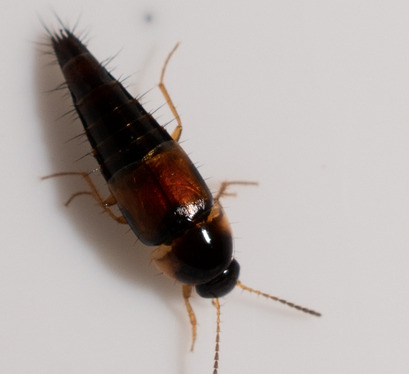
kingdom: Animalia
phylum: Arthropoda
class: Insecta
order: Coleoptera
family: Staphylinidae
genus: Tachyporus
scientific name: Tachyporus hypnorum
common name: Sortplettet agerrovbille
